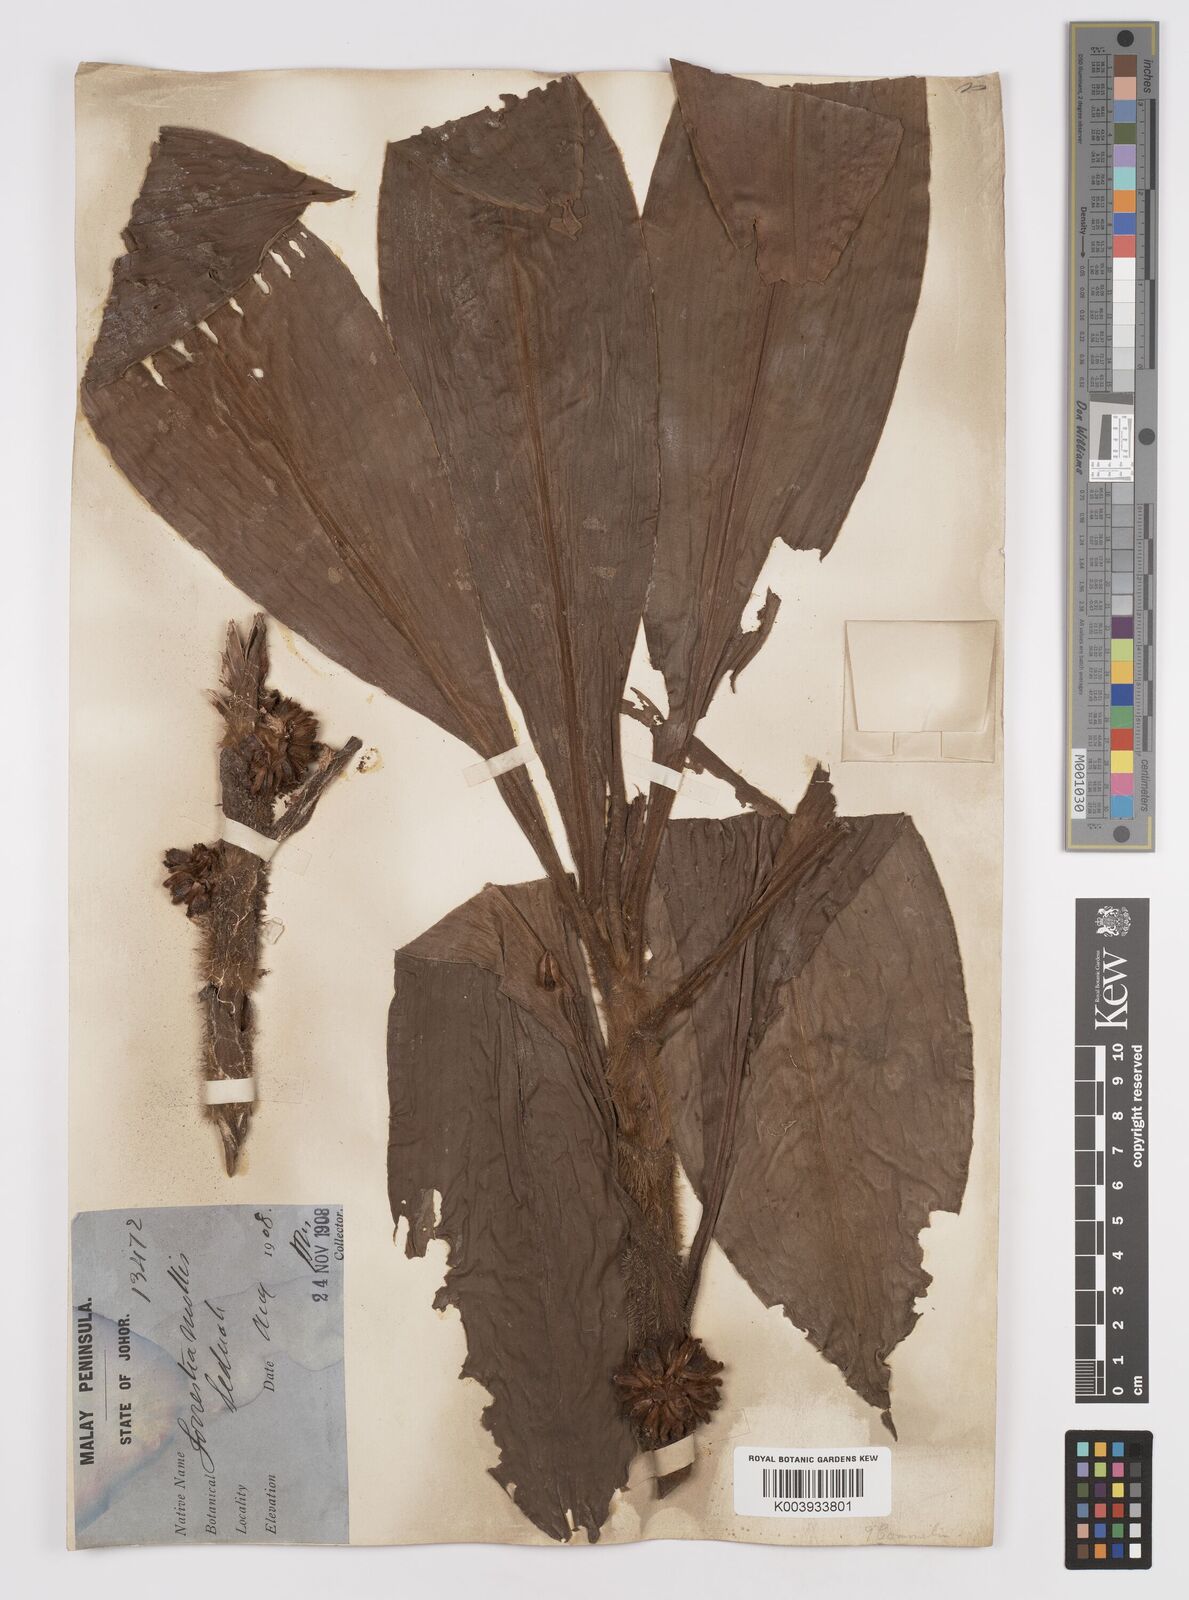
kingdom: Plantae
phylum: Tracheophyta
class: Liliopsida
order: Commelinales
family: Commelinaceae
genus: Amischotolype
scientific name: Amischotolype mollissima
